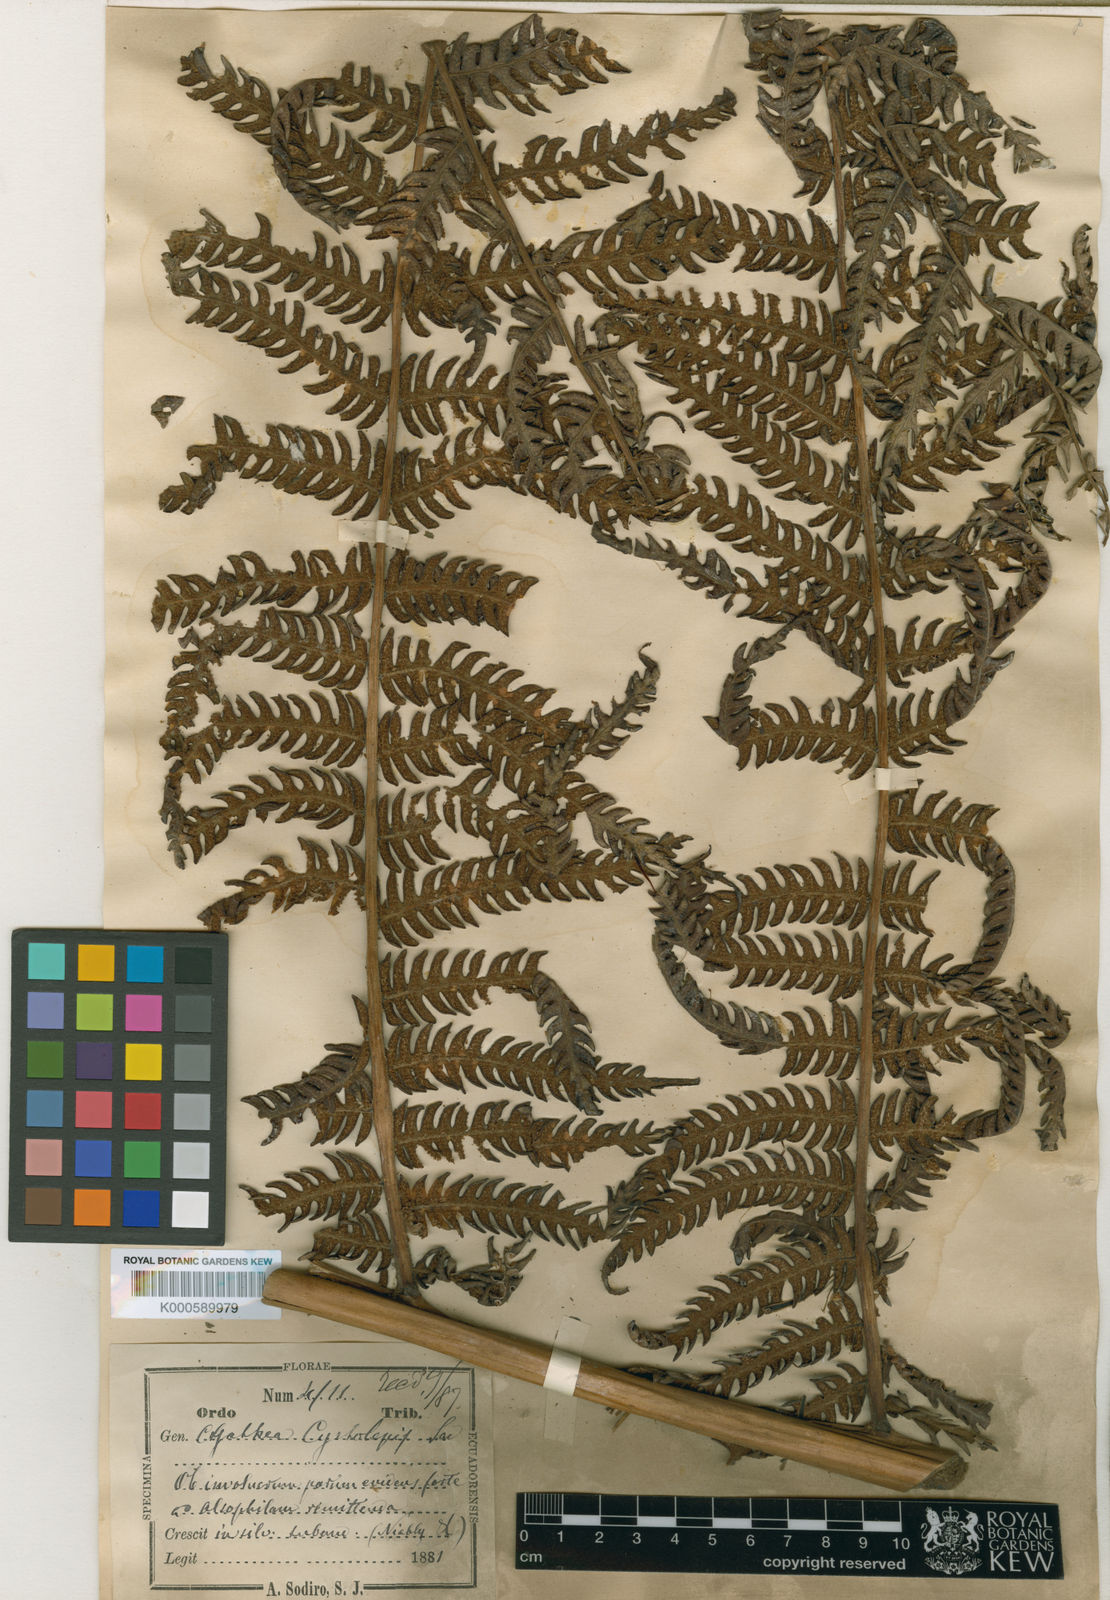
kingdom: Plantae
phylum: Tracheophyta
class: Polypodiopsida
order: Cyatheales
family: Cyatheaceae
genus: Cyathea
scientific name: Cyathea pallescens
